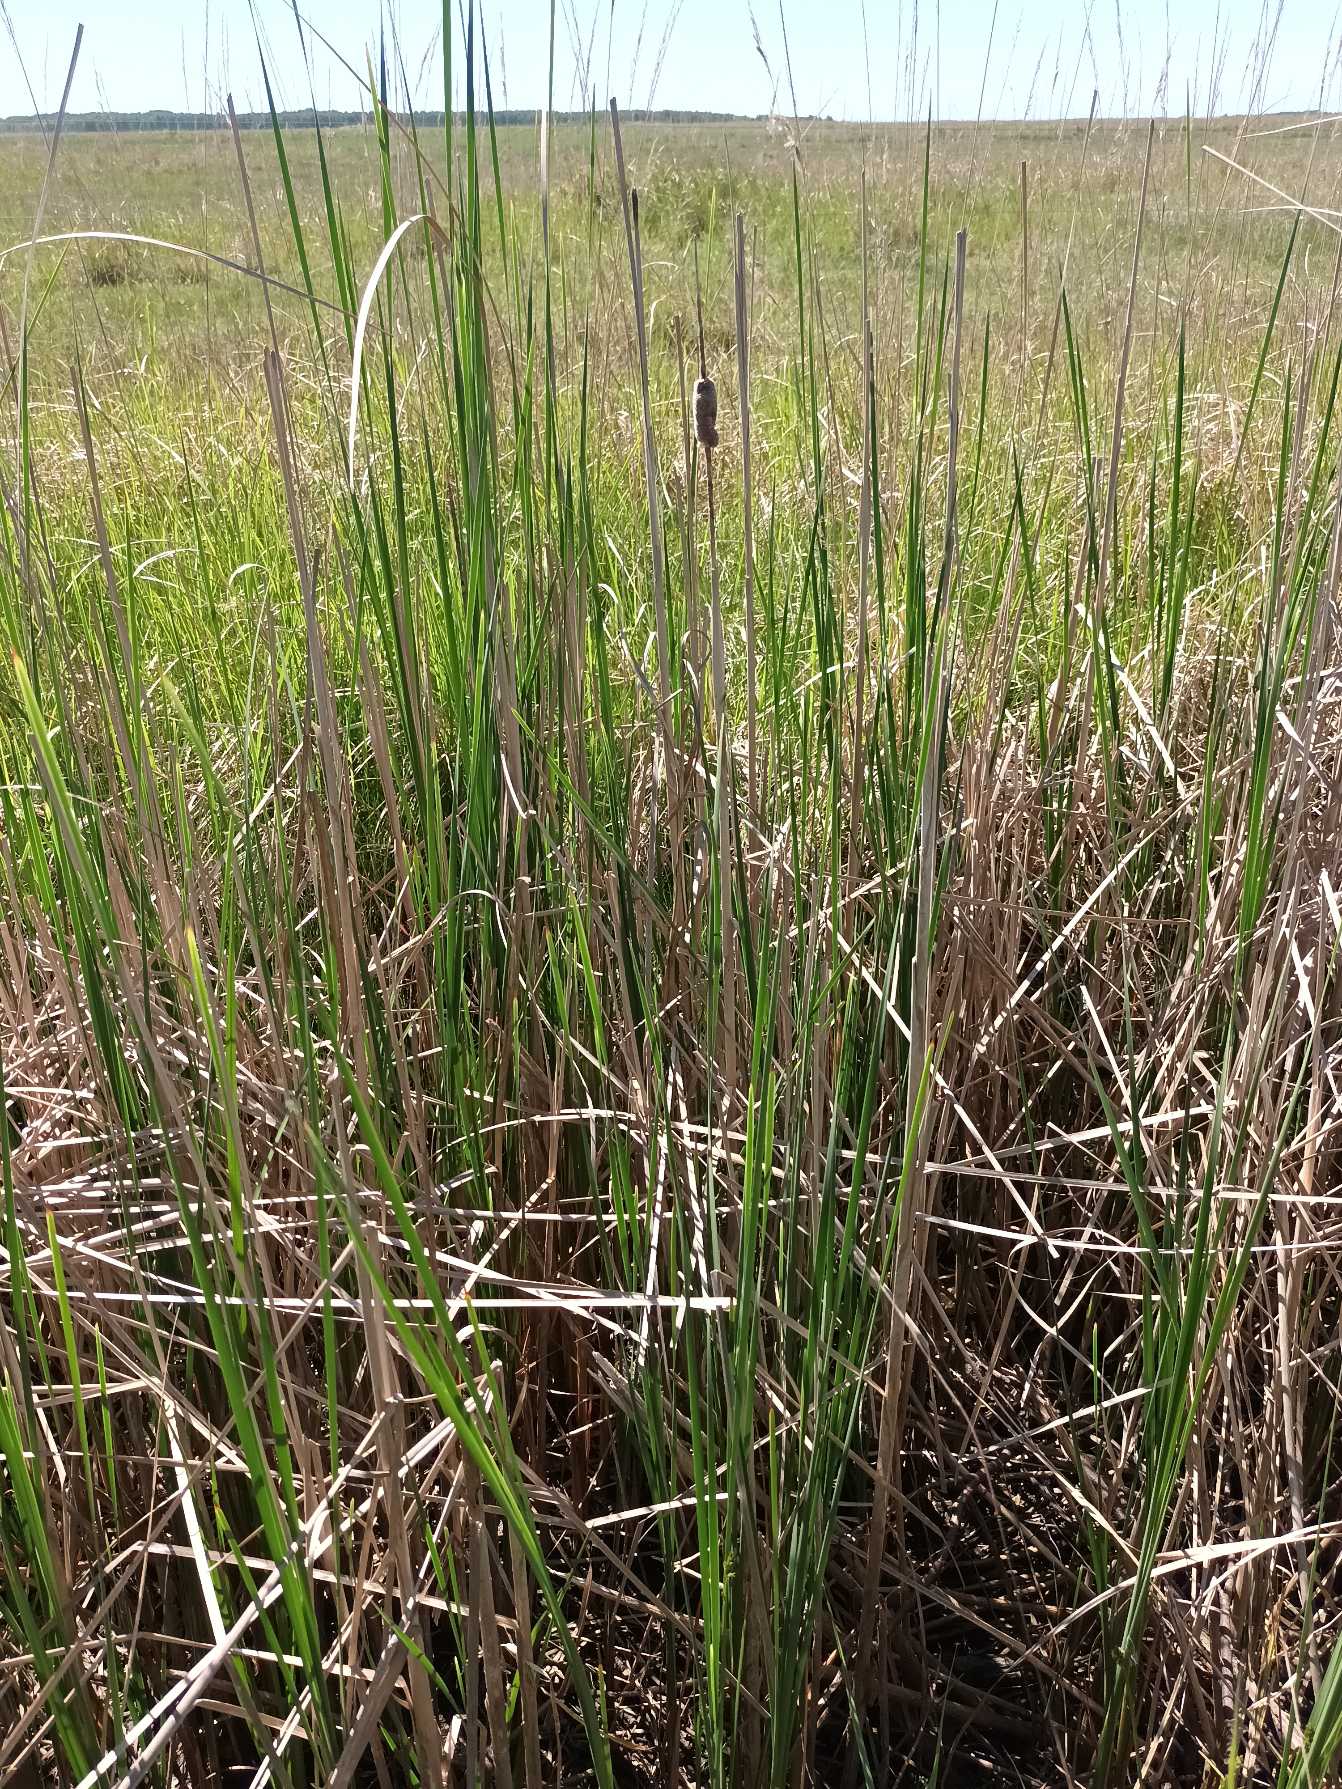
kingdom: Plantae
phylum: Tracheophyta
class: Liliopsida
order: Poales
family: Typhaceae
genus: Typha
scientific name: Typha laxmannii
